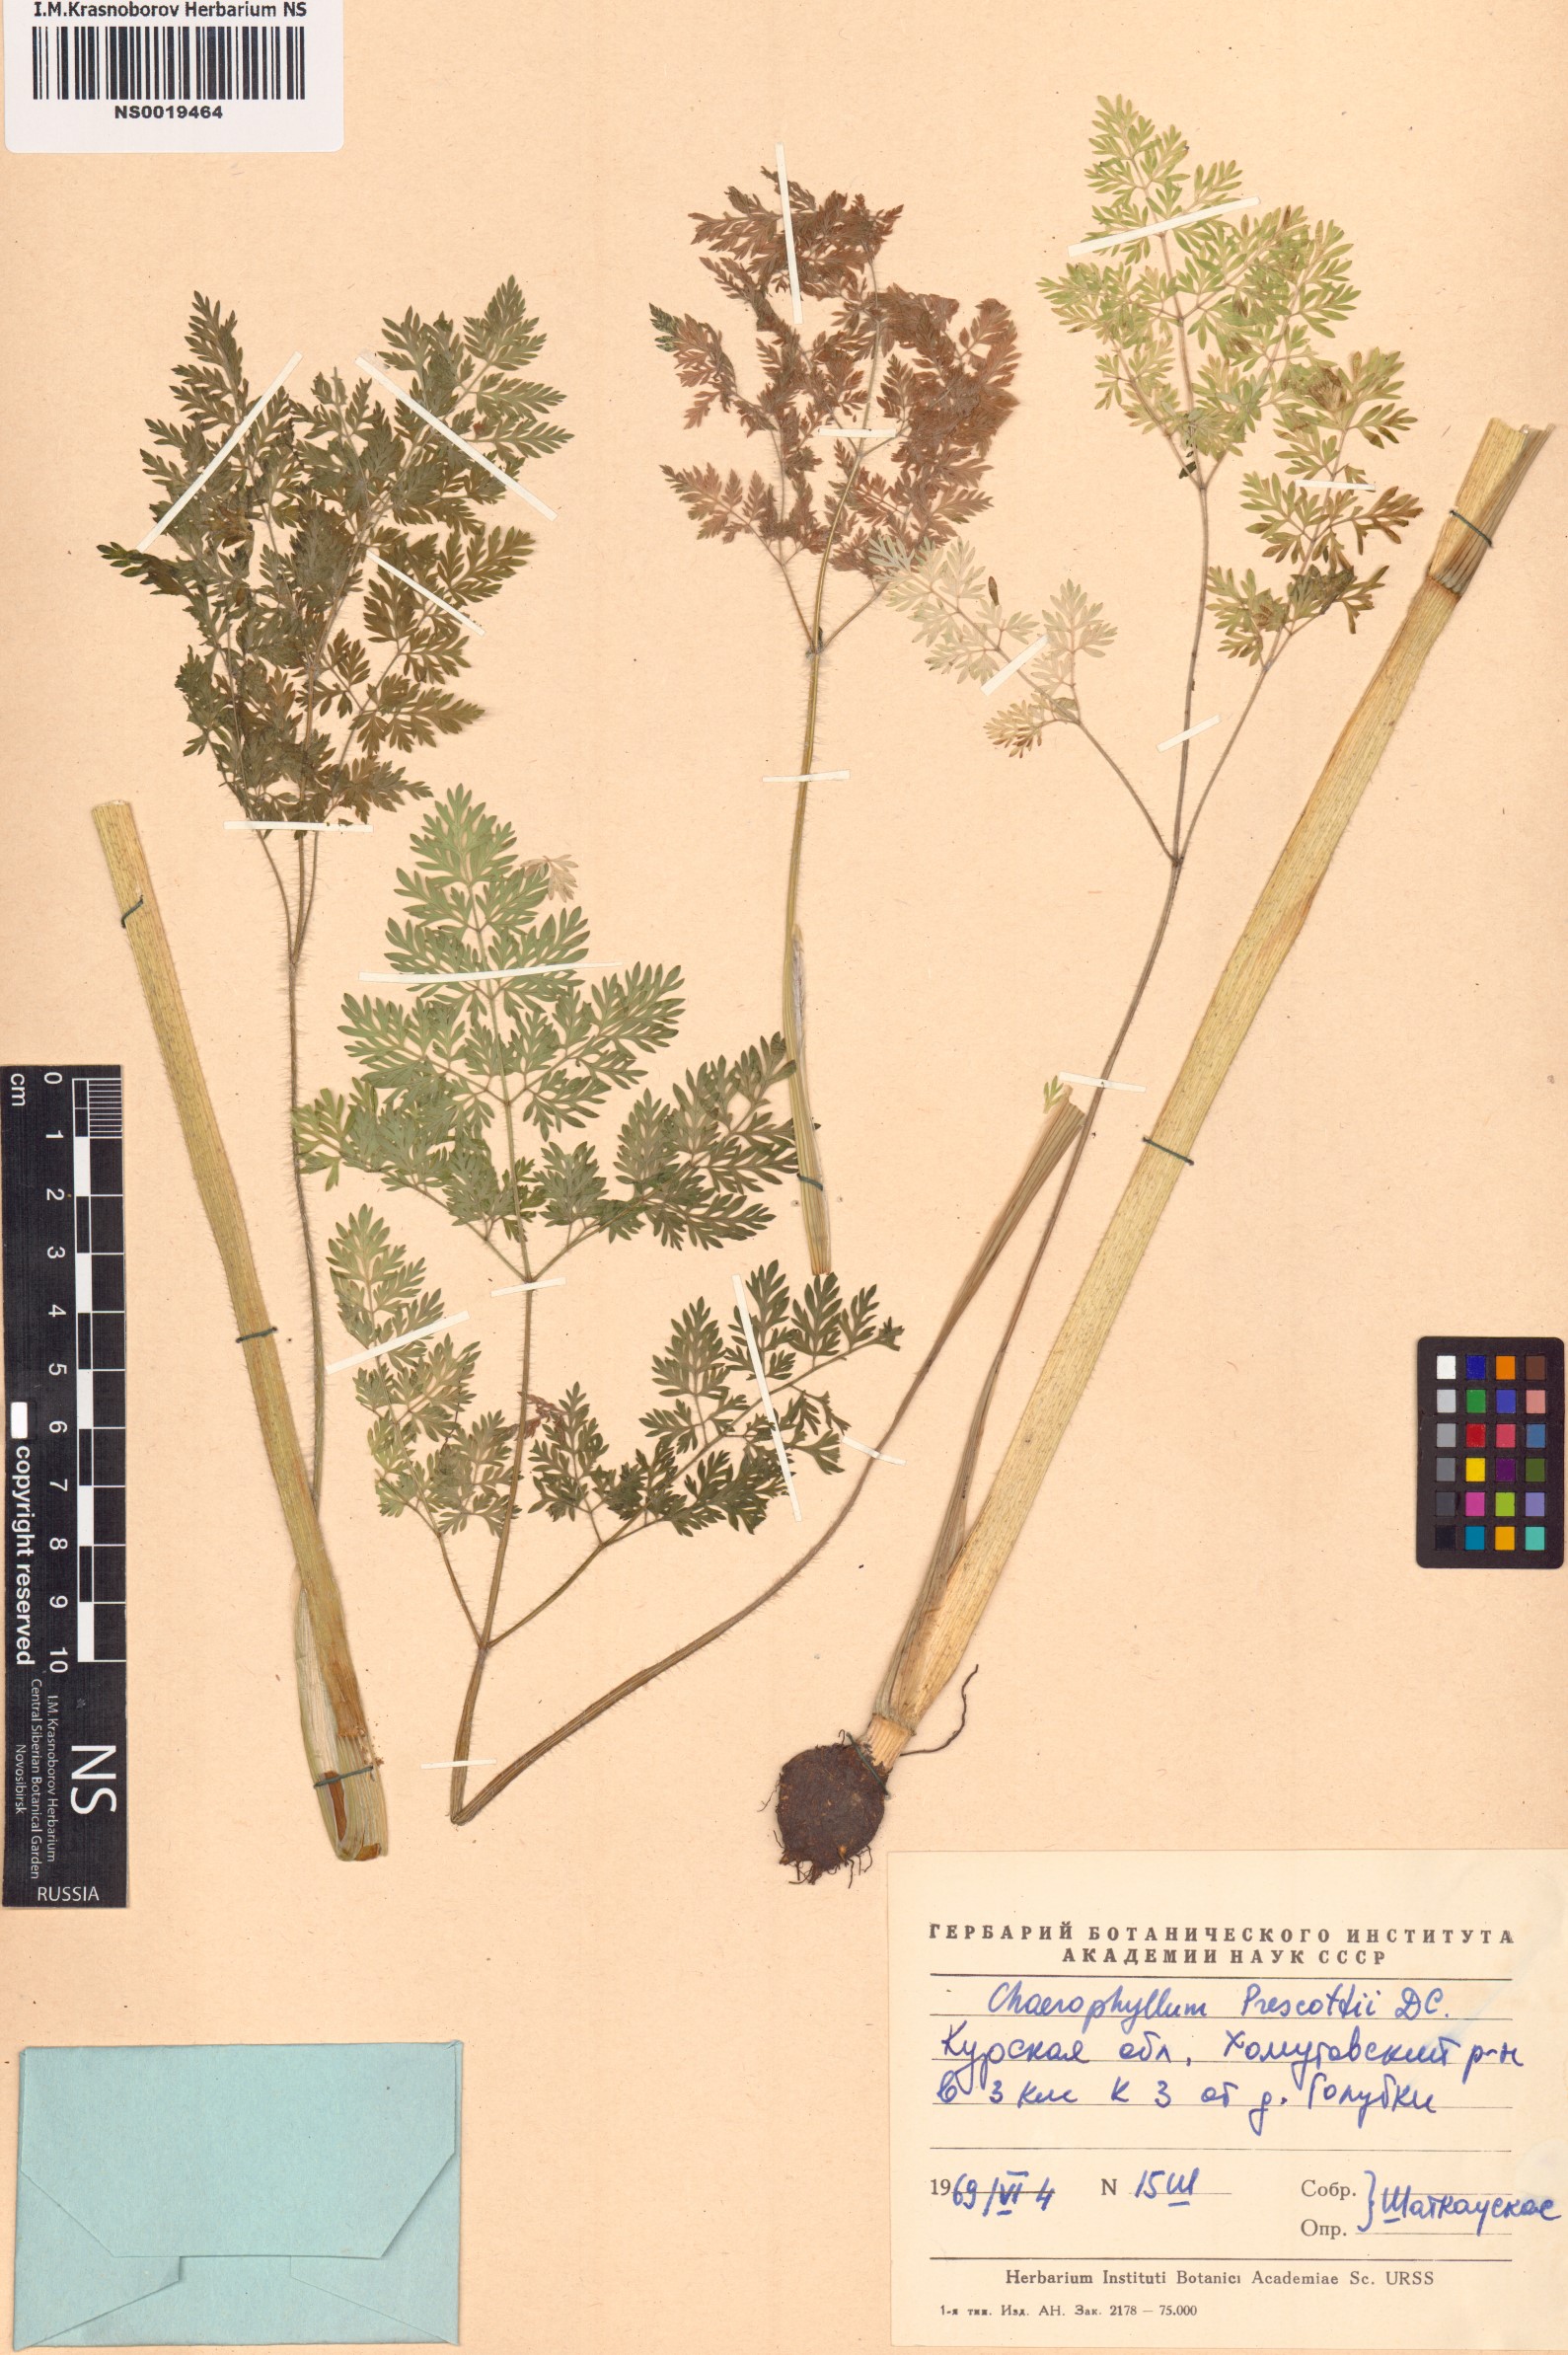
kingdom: Plantae
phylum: Tracheophyta
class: Magnoliopsida
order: Apiales
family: Apiaceae
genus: Chaerophyllum
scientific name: Chaerophyllum prescottii
